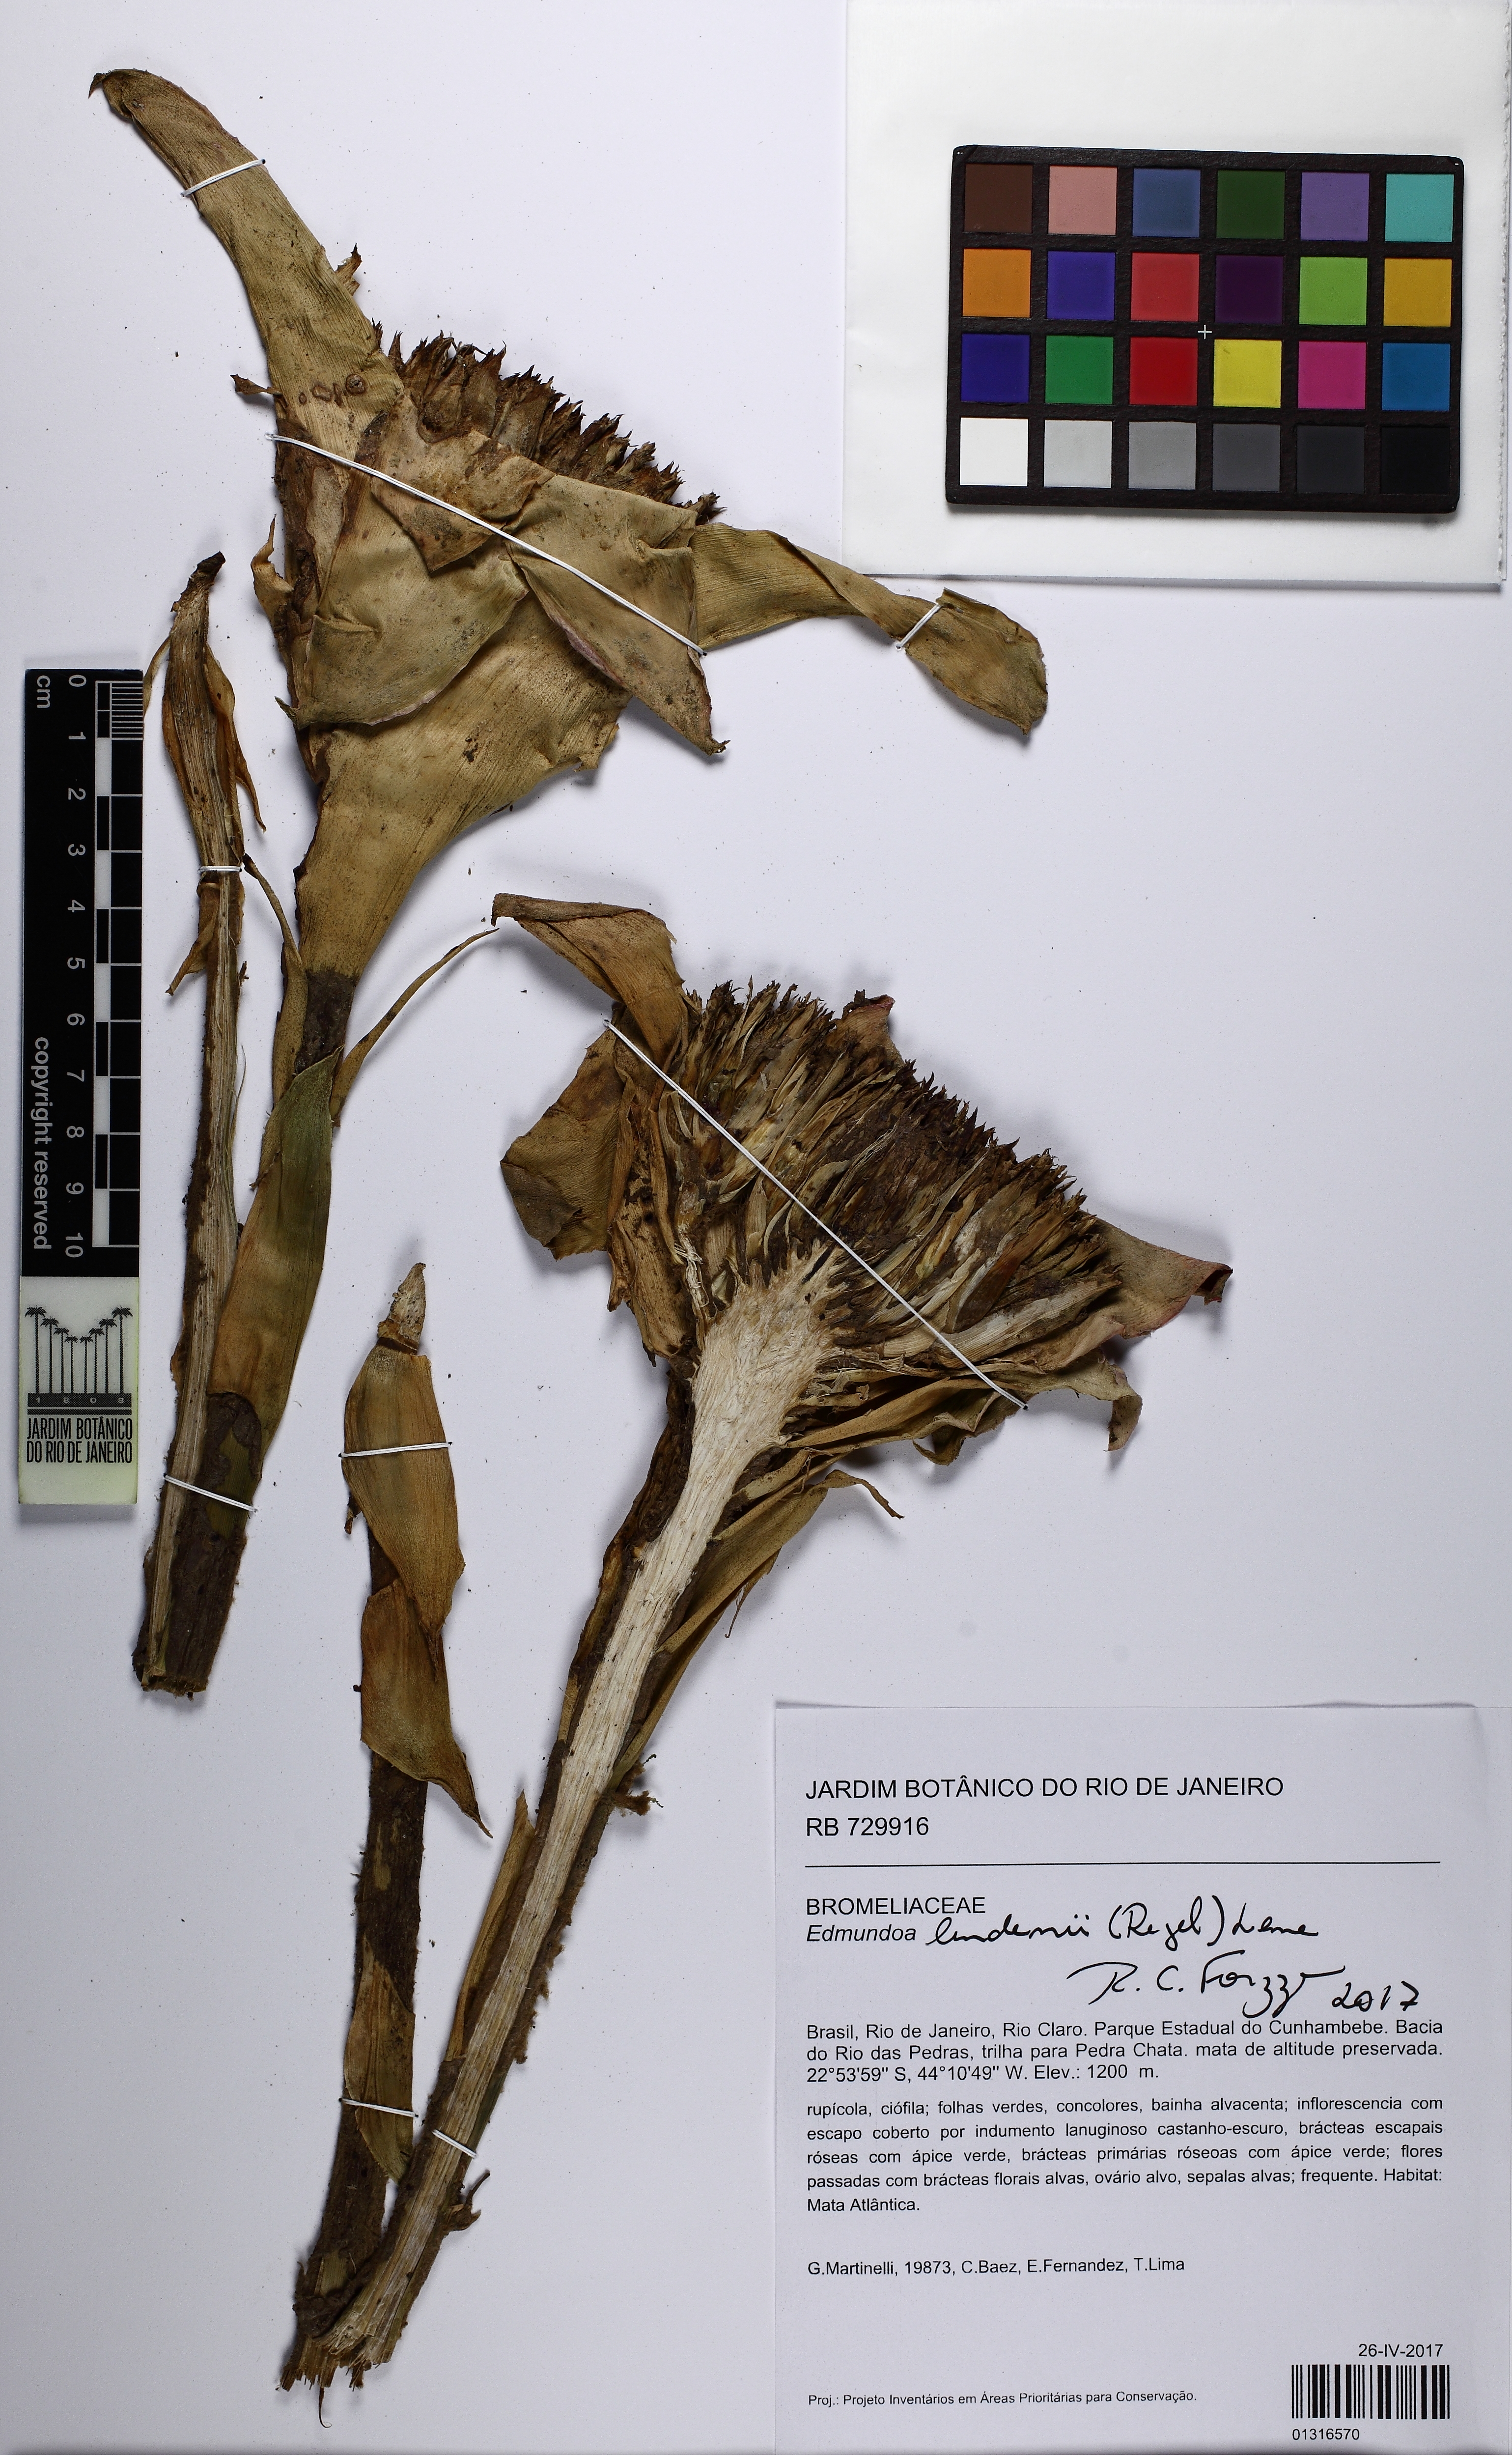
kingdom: Plantae
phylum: Tracheophyta
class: Liliopsida
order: Poales
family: Bromeliaceae
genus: Edmundoa
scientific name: Edmundoa lindenii
